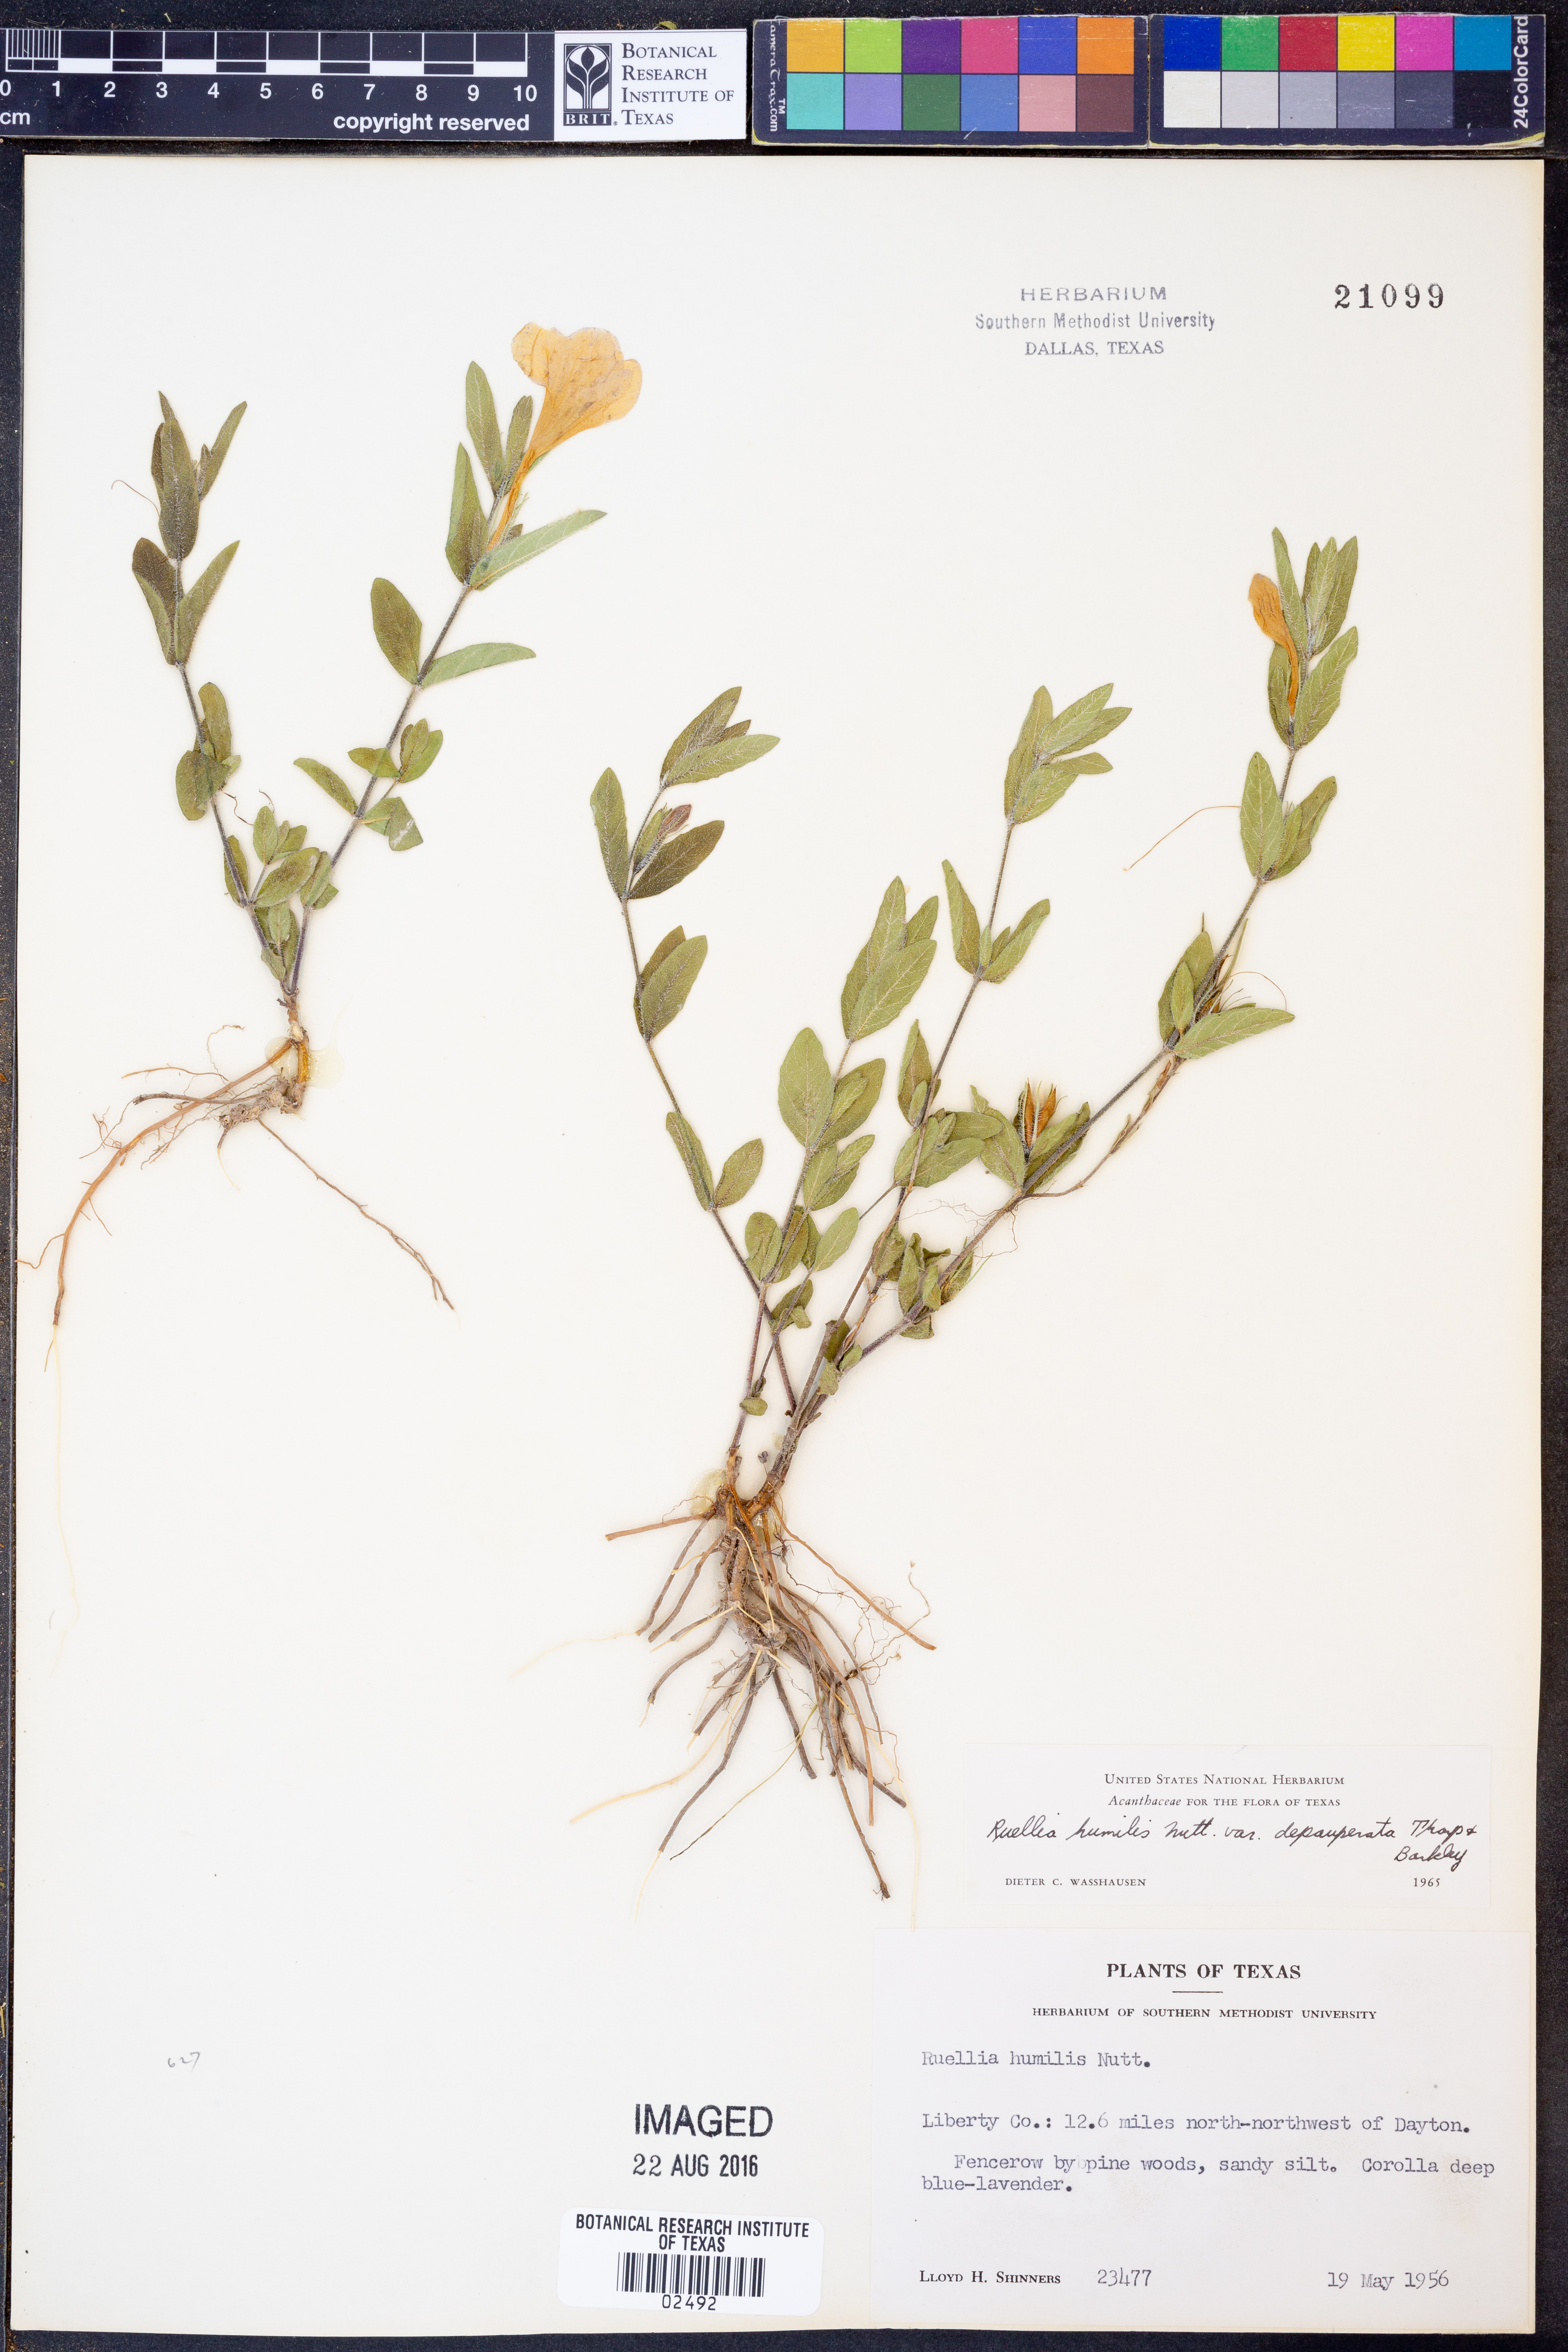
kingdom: Plantae
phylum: Tracheophyta
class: Magnoliopsida
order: Lamiales
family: Acanthaceae
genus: Ruellia
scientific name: Ruellia humilis
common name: Fringe-leaf ruellia
